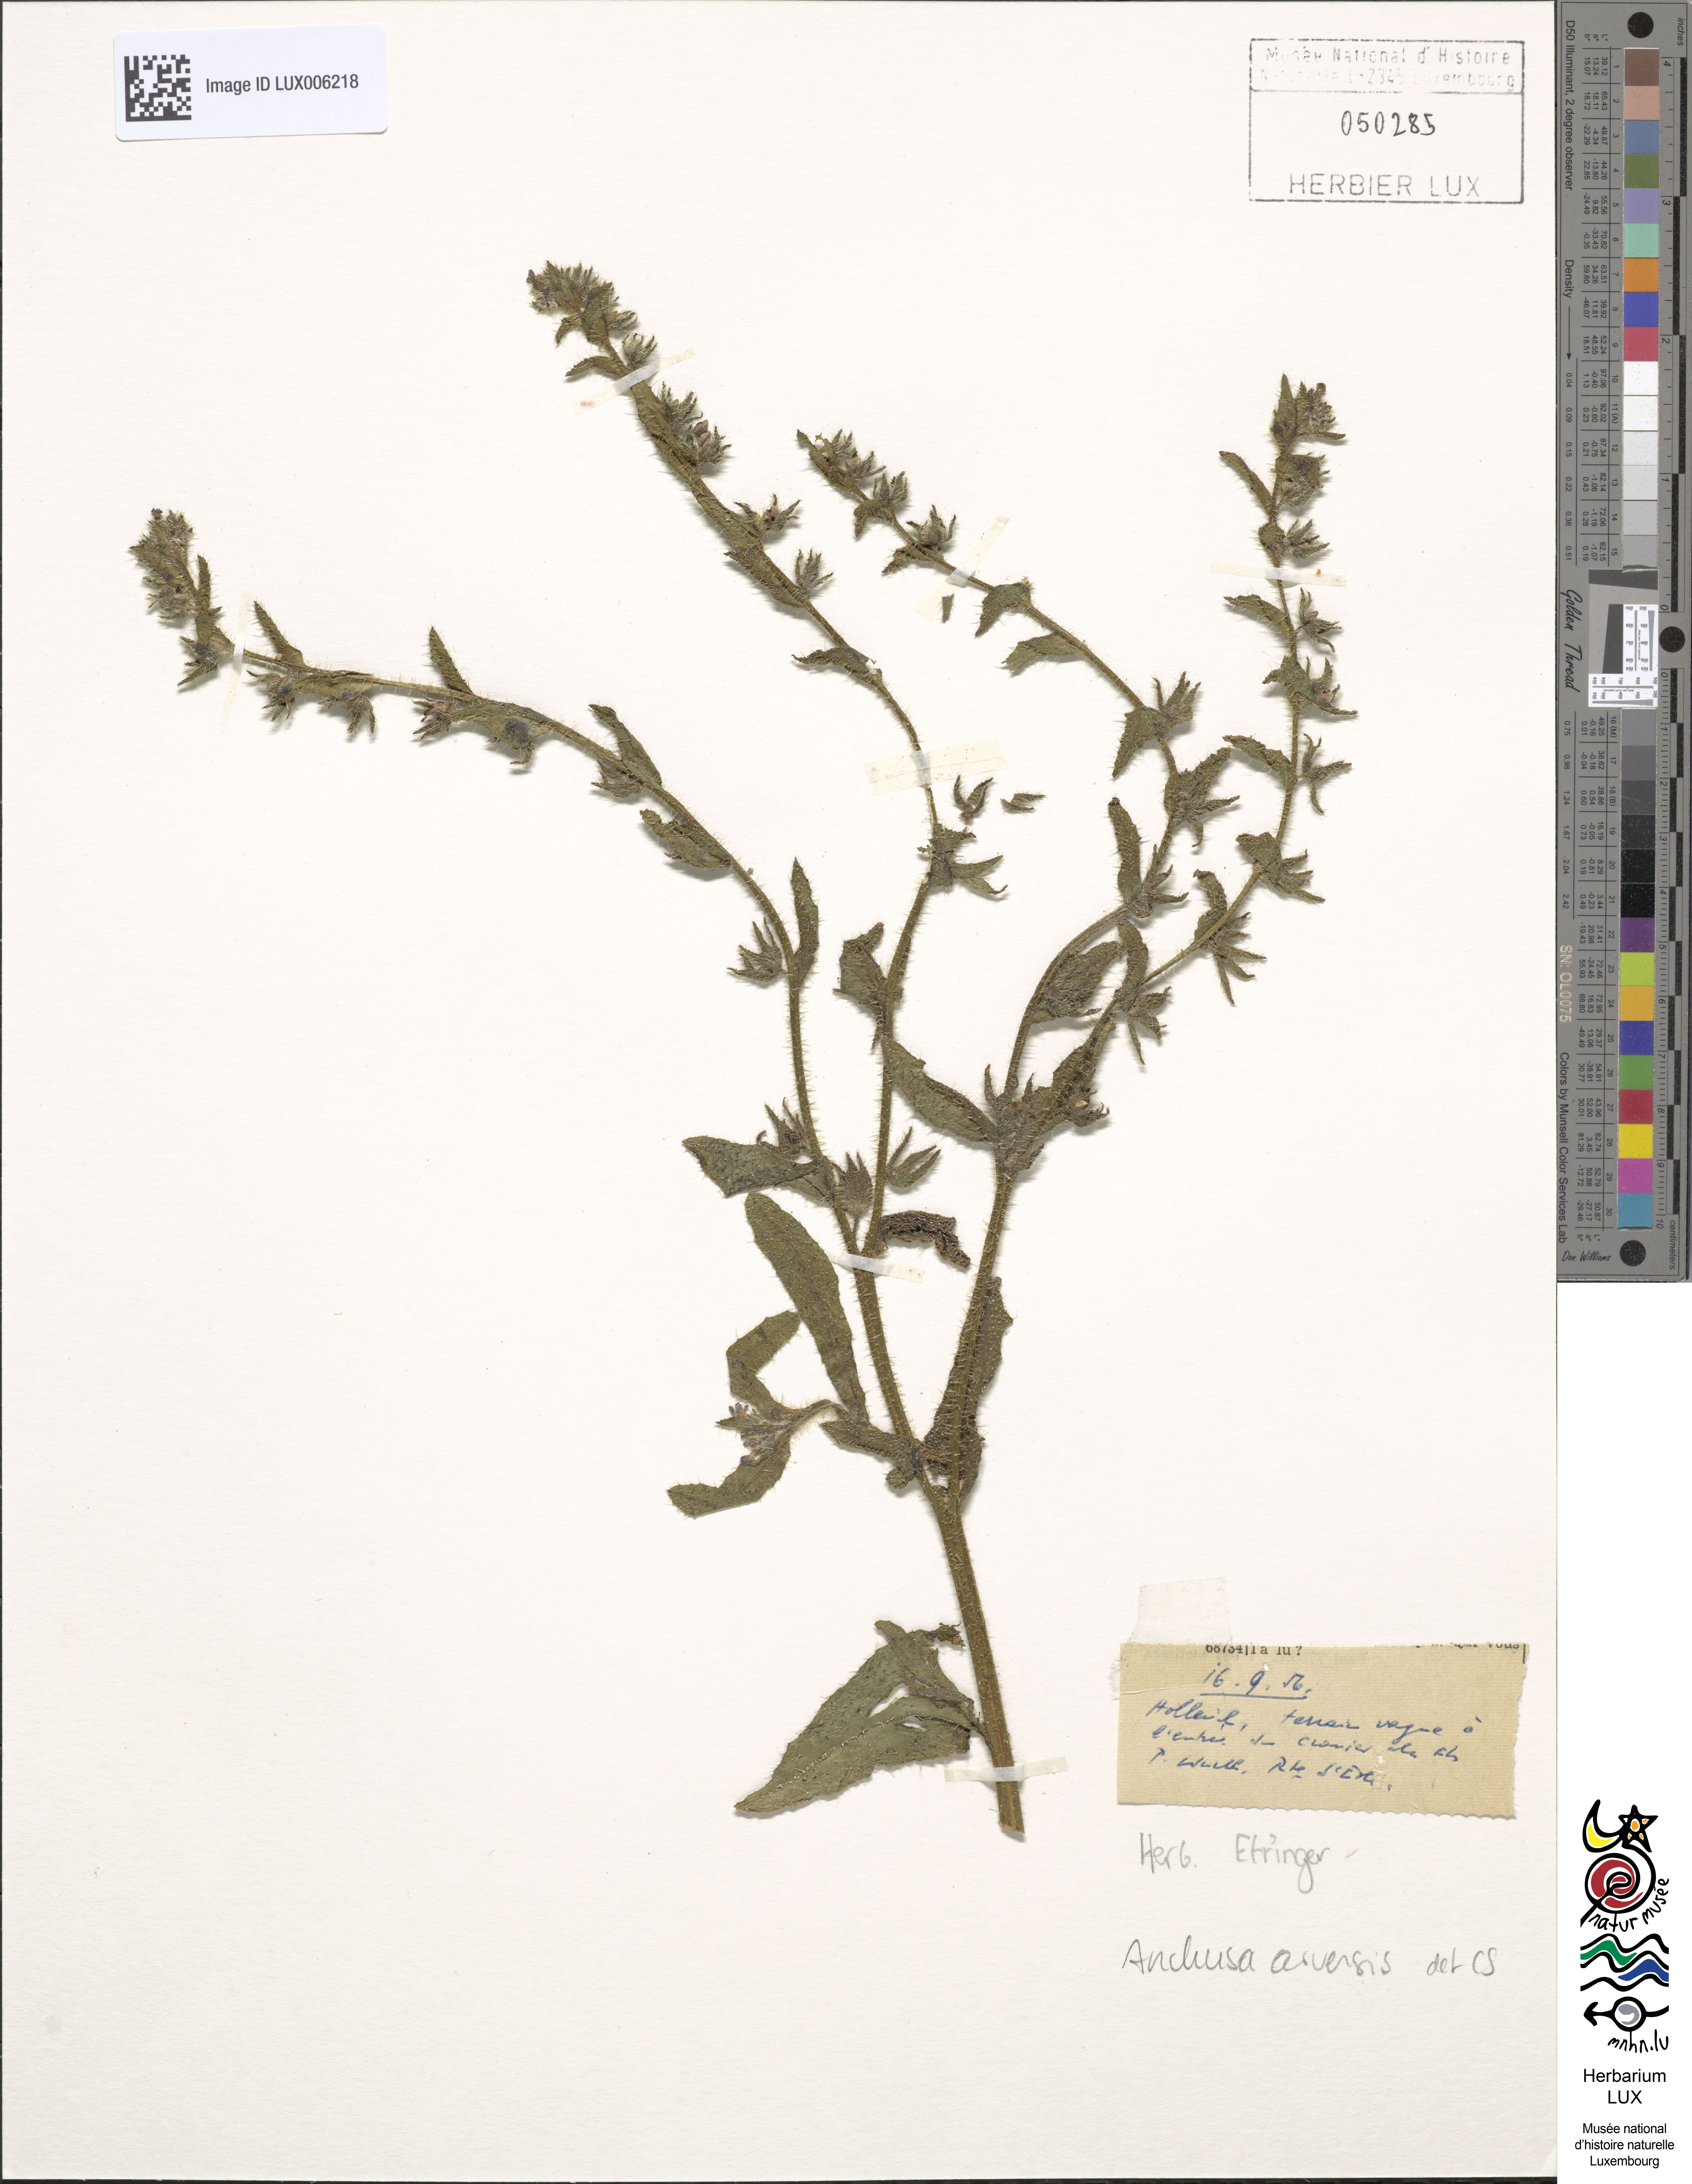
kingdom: Plantae
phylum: Tracheophyta
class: Magnoliopsida
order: Boraginales
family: Boraginaceae
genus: Lycopsis
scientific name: Lycopsis arvensis
